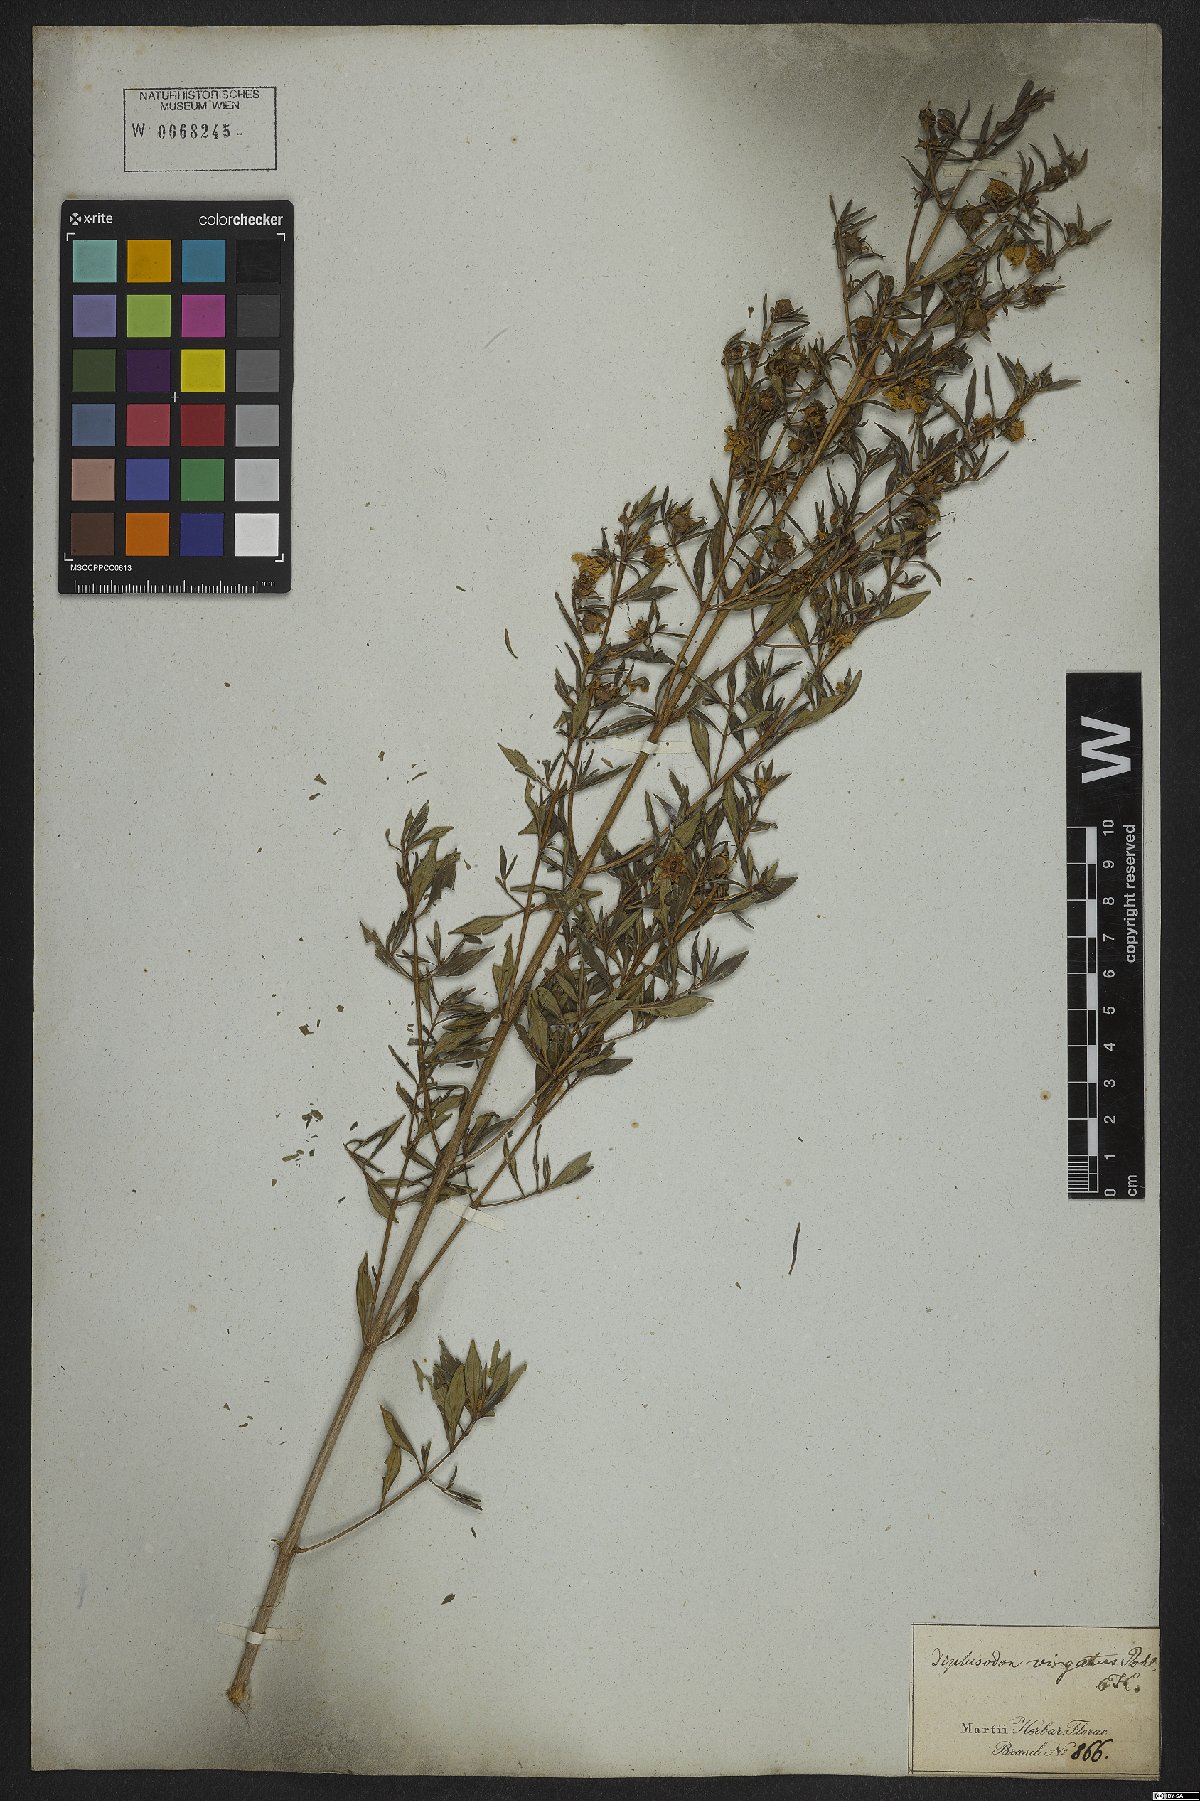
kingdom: Plantae
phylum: Tracheophyta
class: Magnoliopsida
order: Myrtales
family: Lythraceae
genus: Diplusodon
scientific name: Diplusodon virgatus
